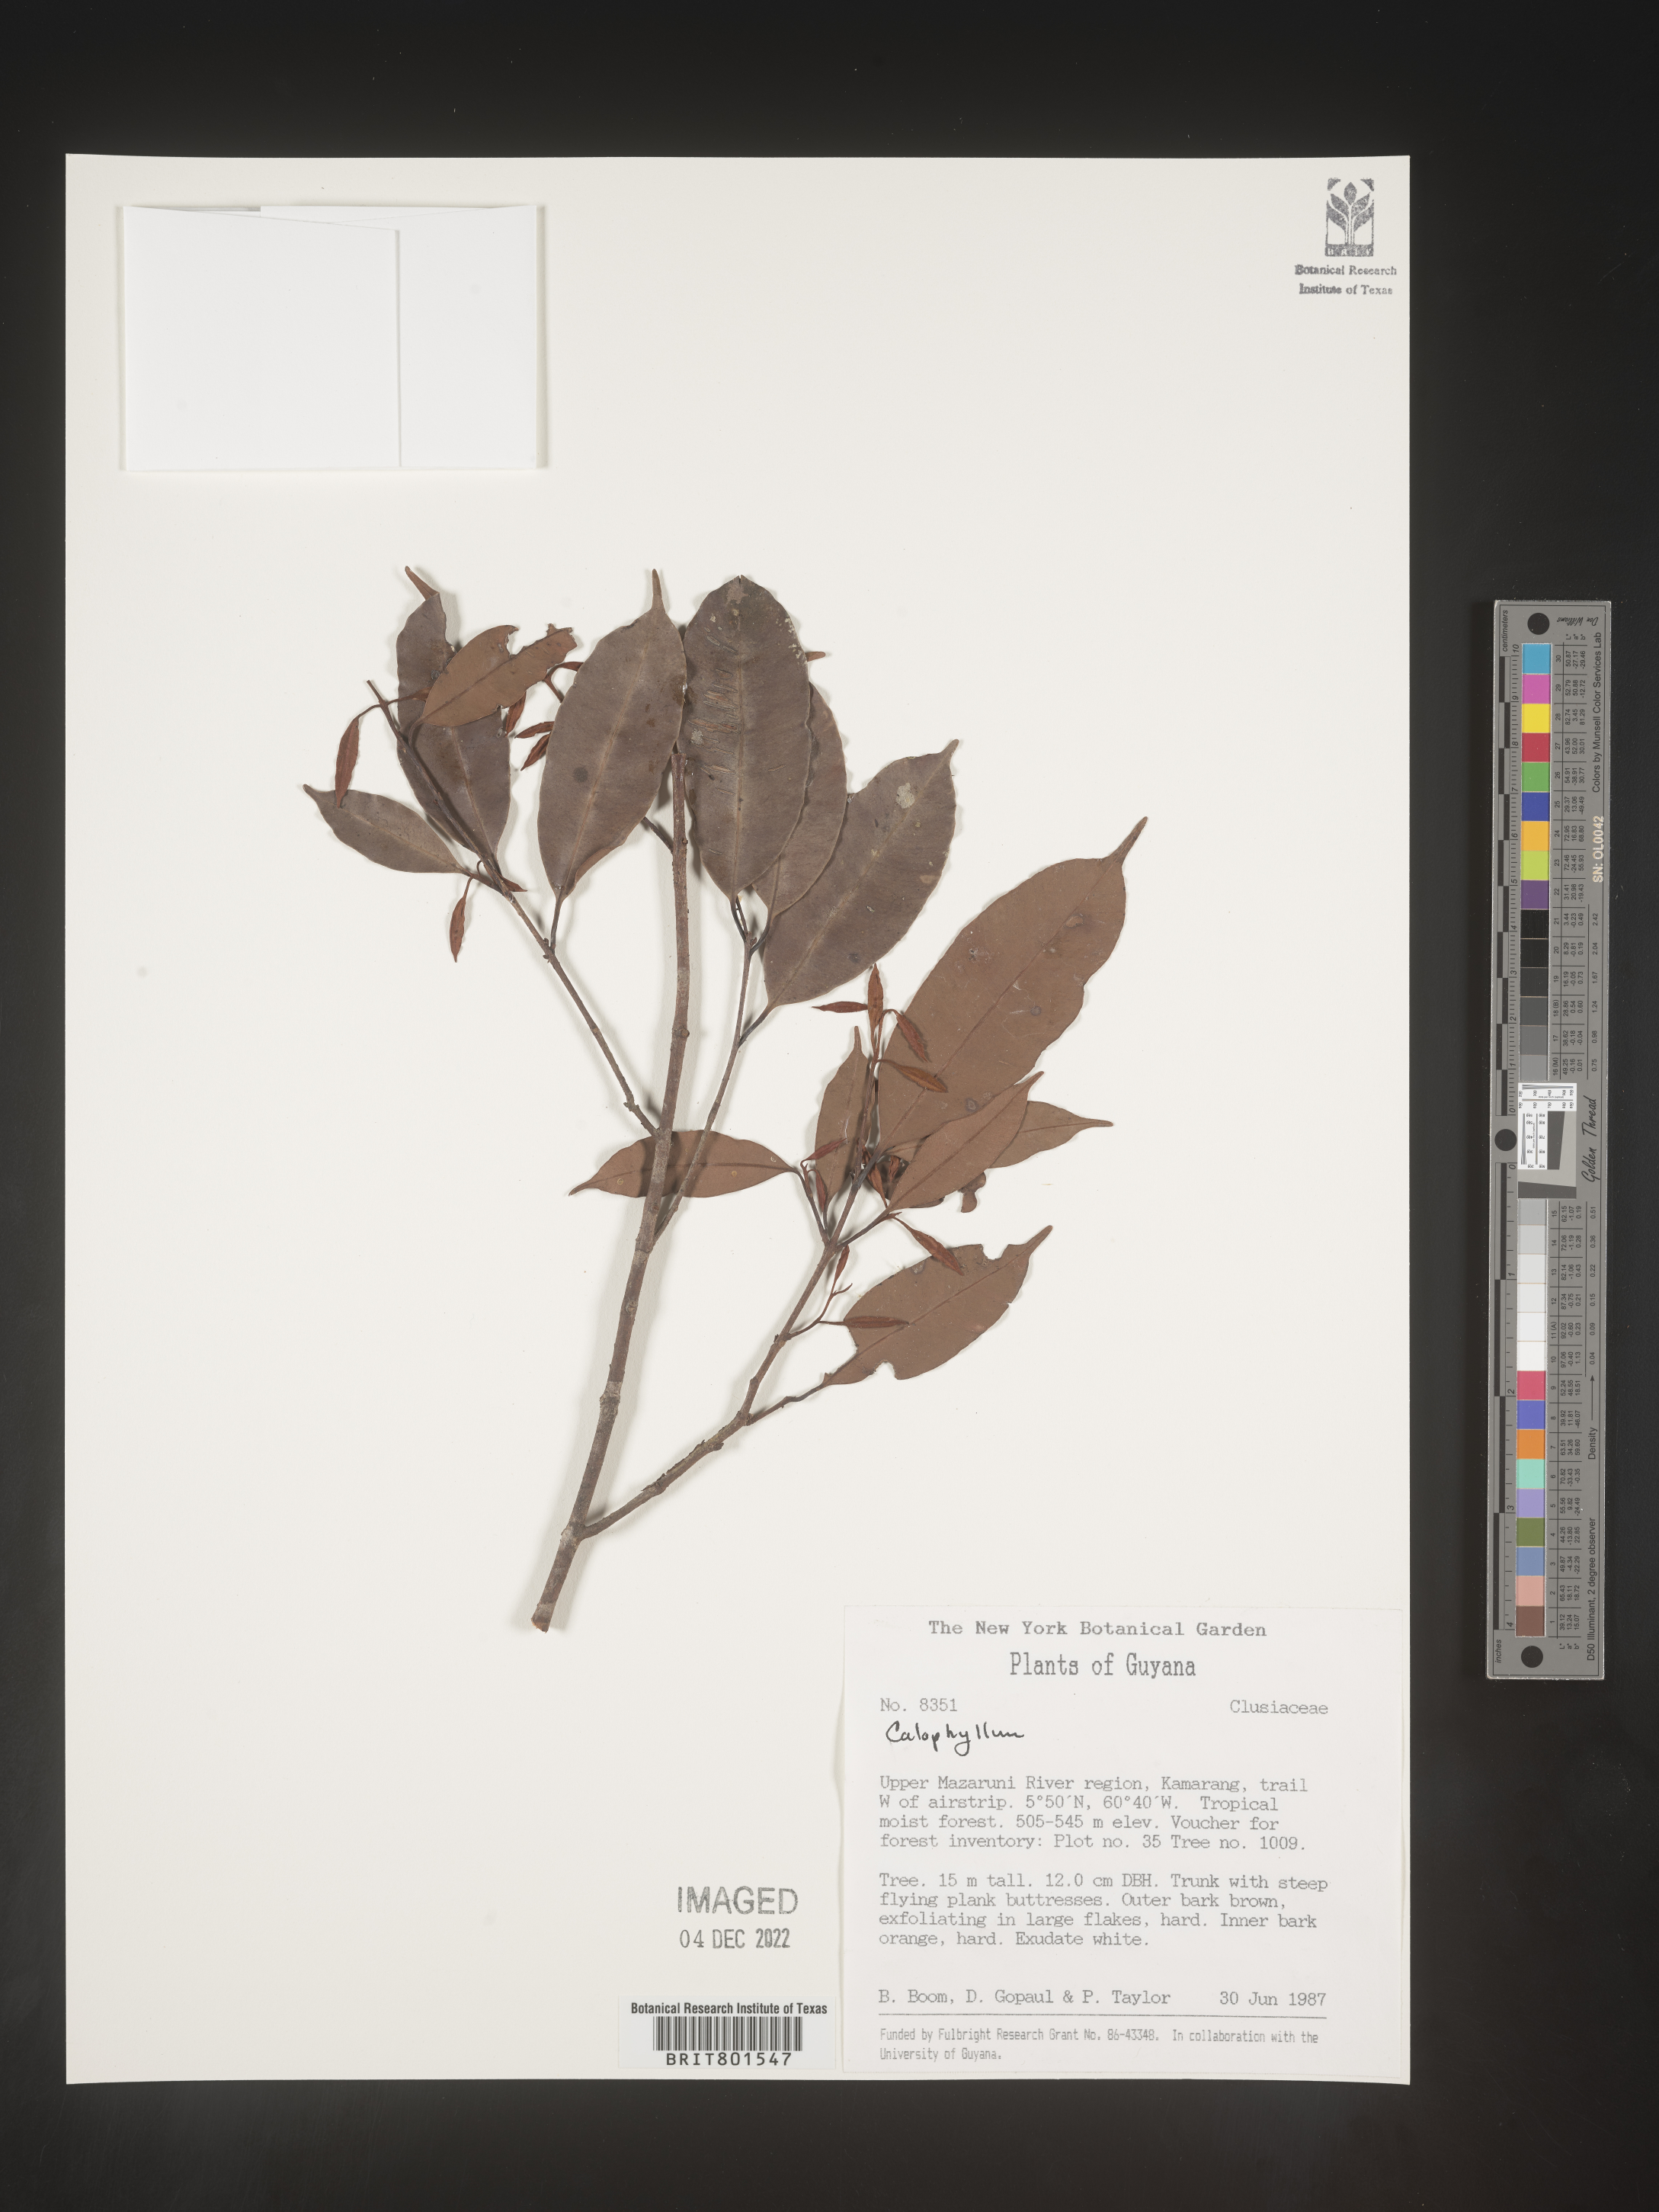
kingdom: Plantae
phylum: Tracheophyta
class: Magnoliopsida
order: Malpighiales
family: Calophyllaceae
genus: Calophyllum
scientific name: Calophyllum
